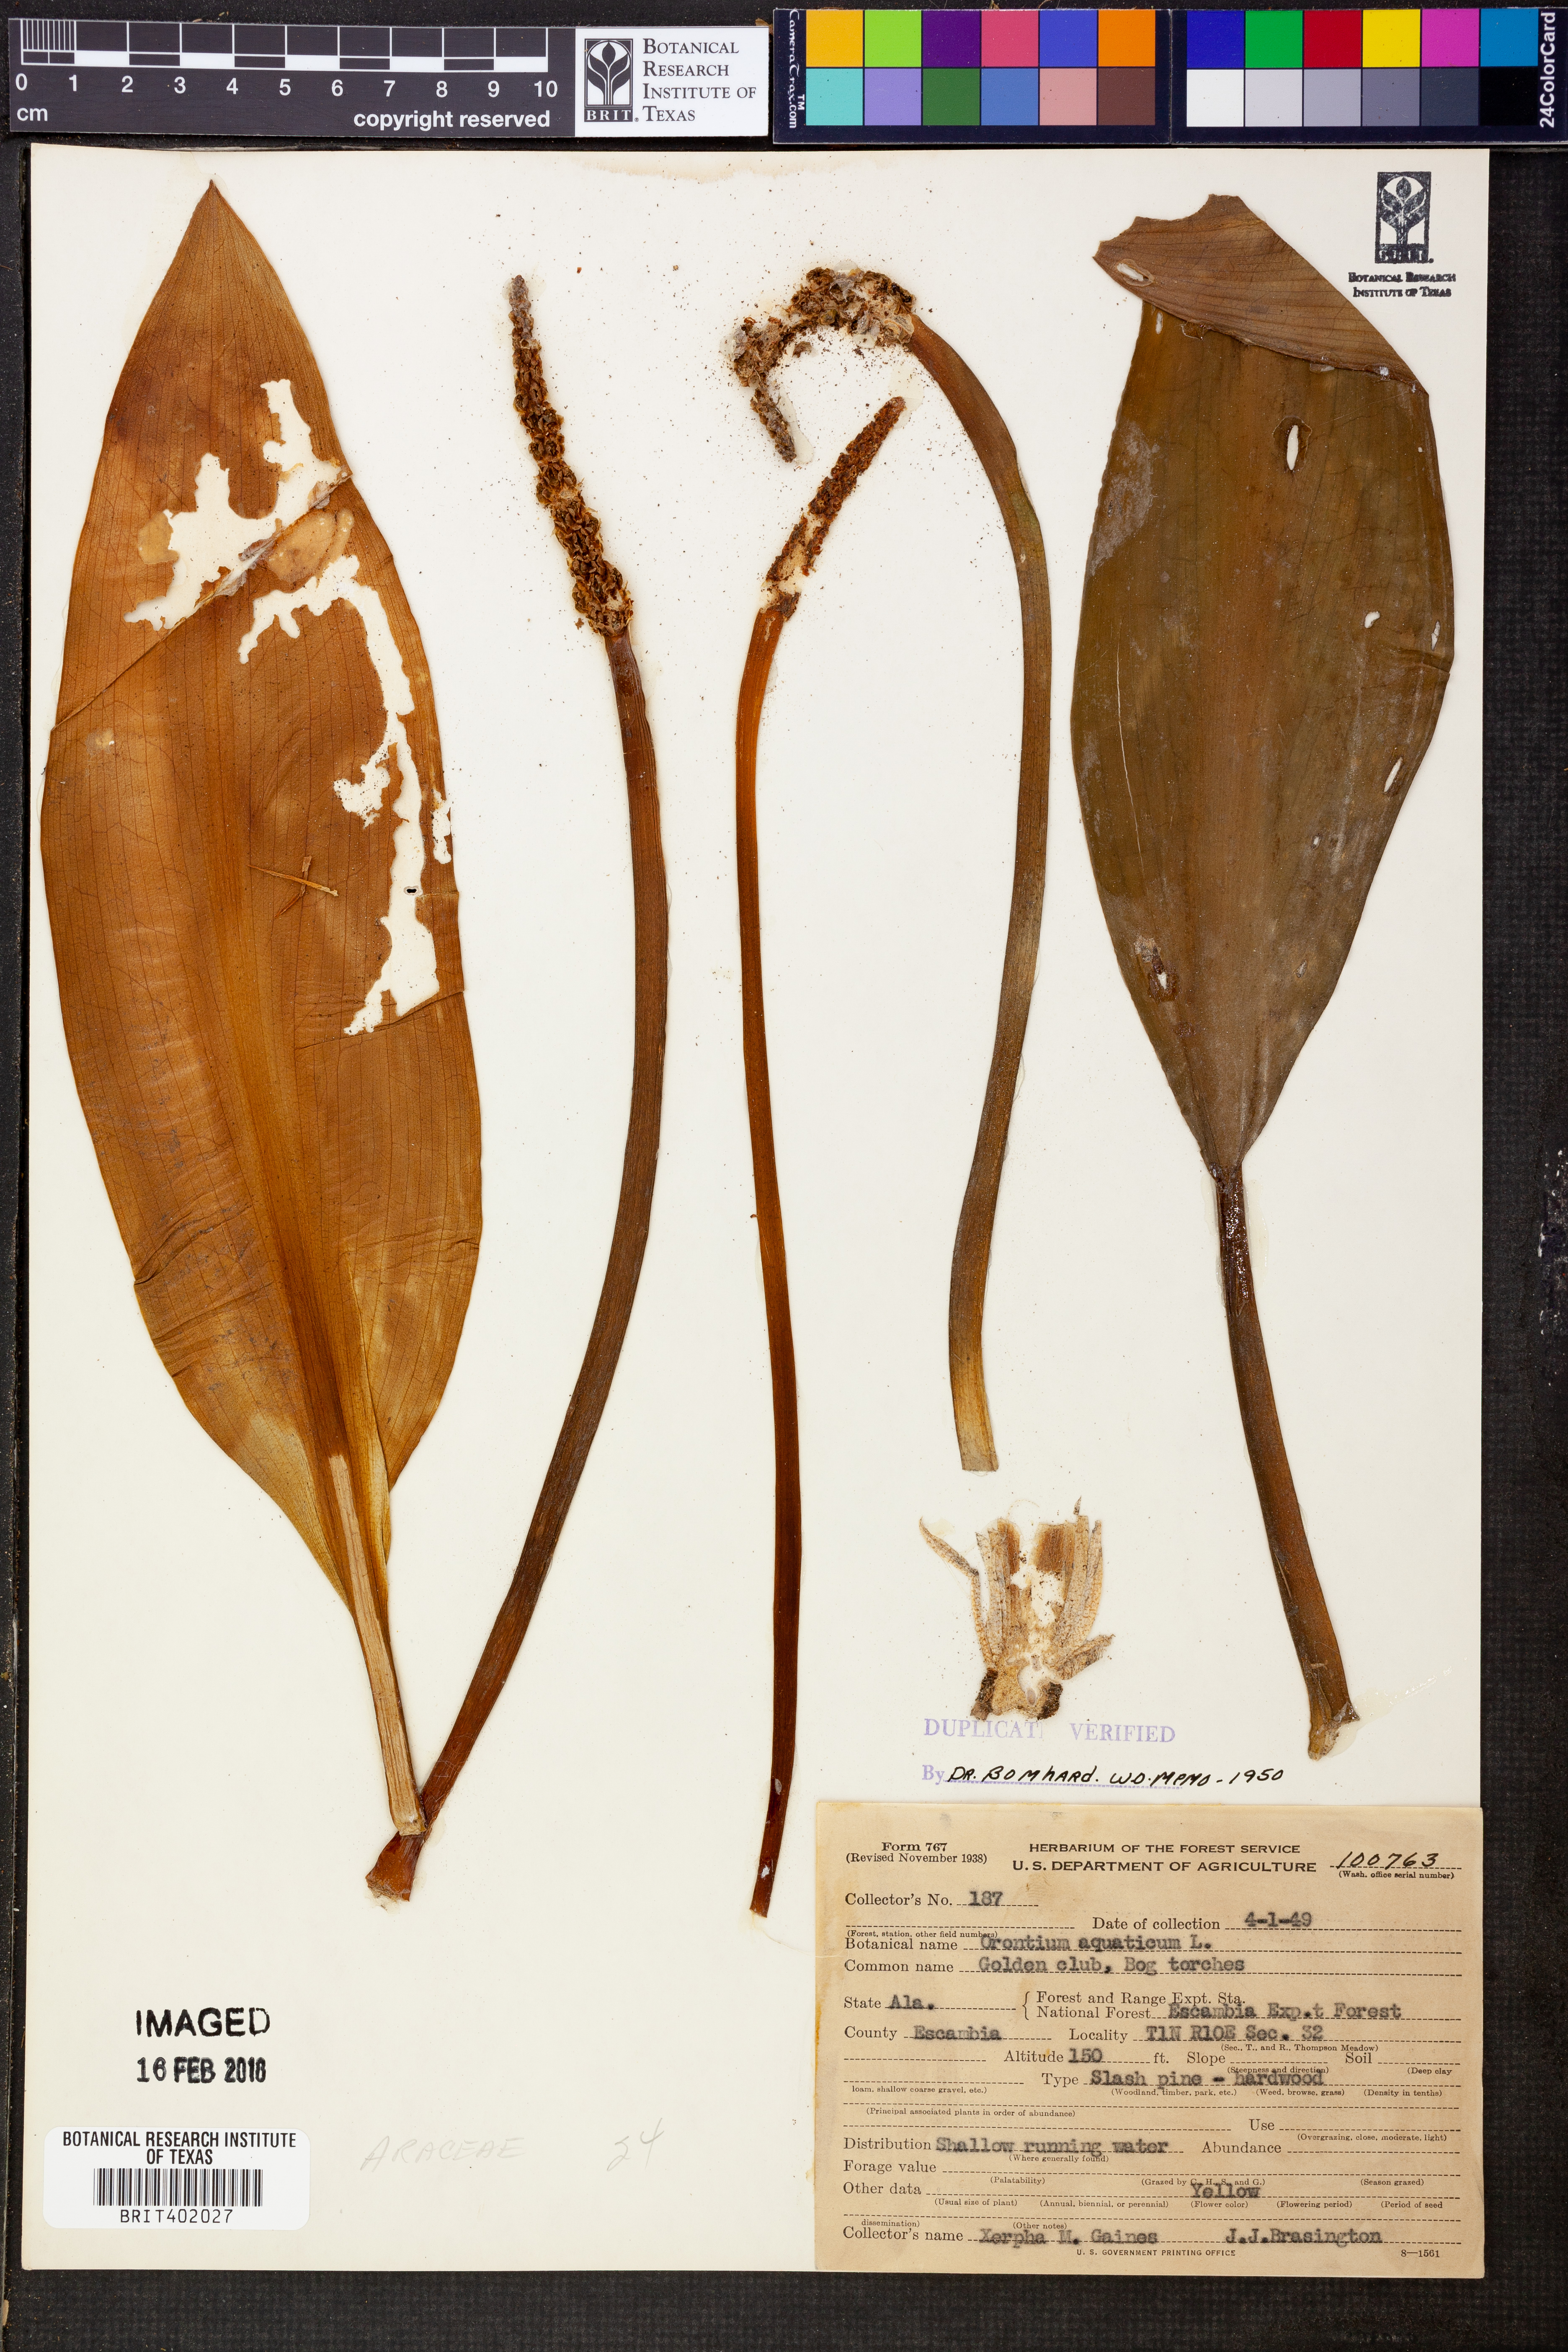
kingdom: Plantae
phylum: Tracheophyta
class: Liliopsida
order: Alismatales
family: Araceae
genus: Orontium
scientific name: Orontium aquaticum
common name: Golden-club
